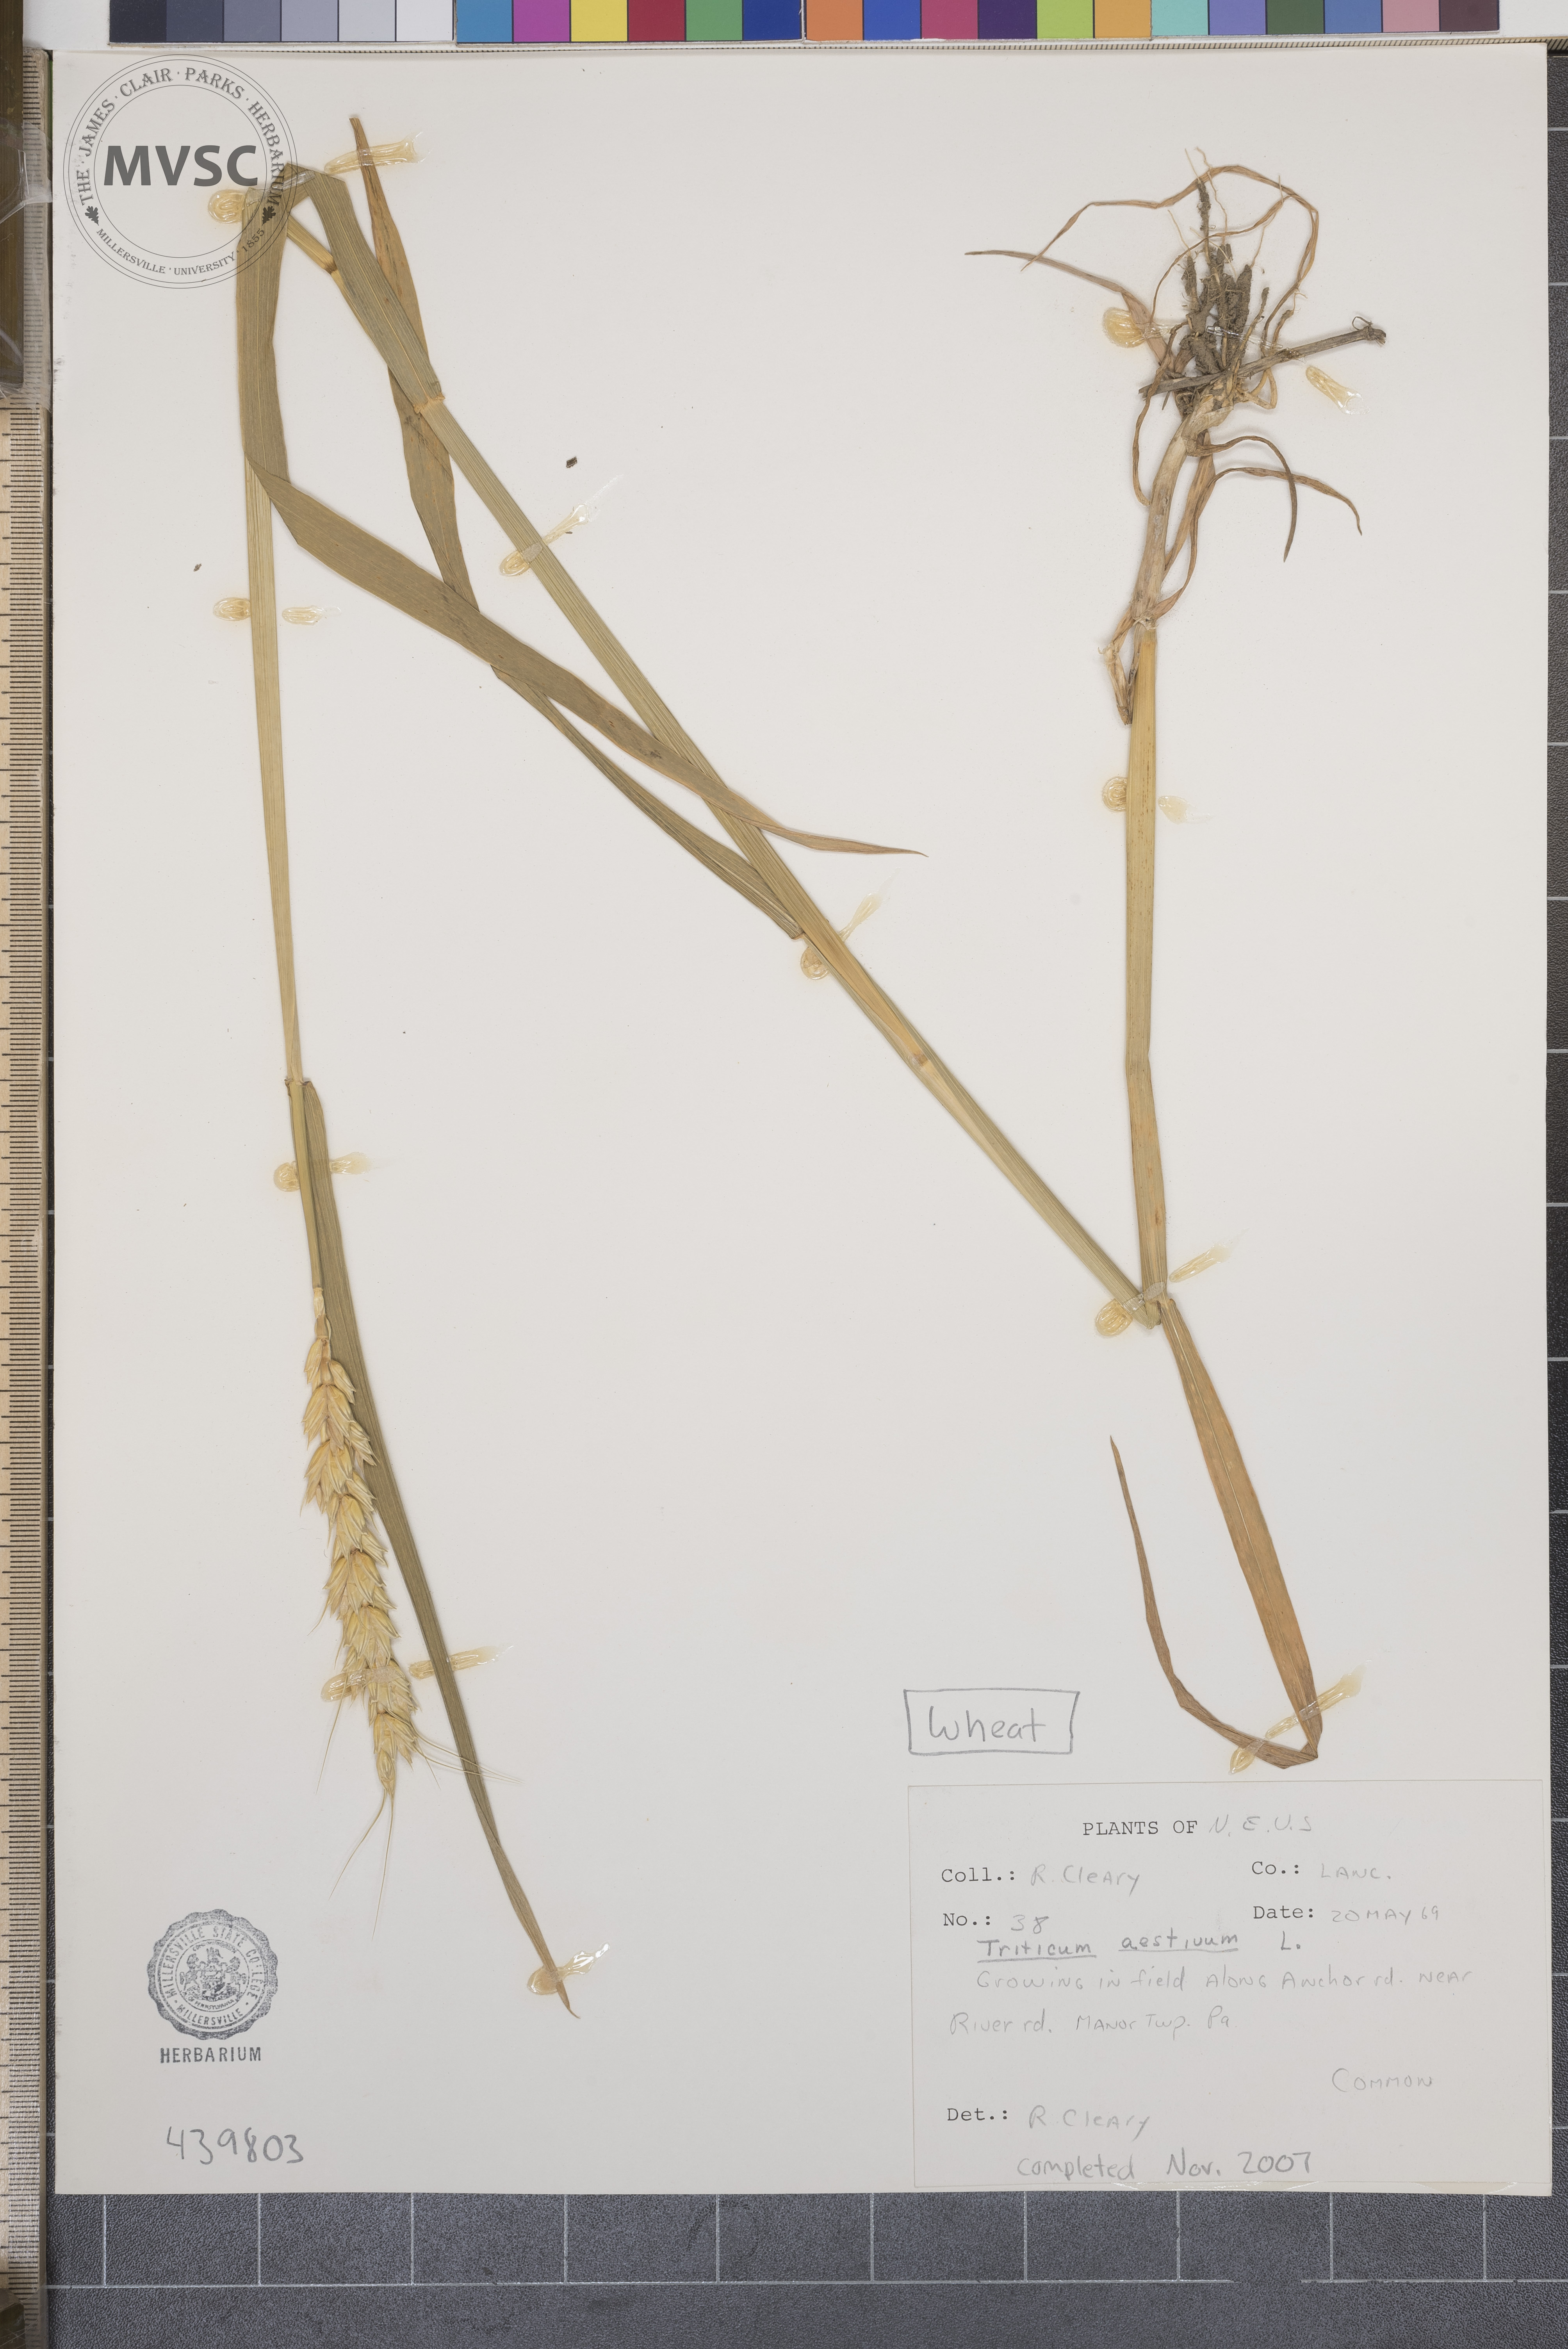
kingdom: Plantae
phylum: Tracheophyta
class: Liliopsida
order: Poales
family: Poaceae
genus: Triticum
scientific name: Triticum aestivum
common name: Wheat
